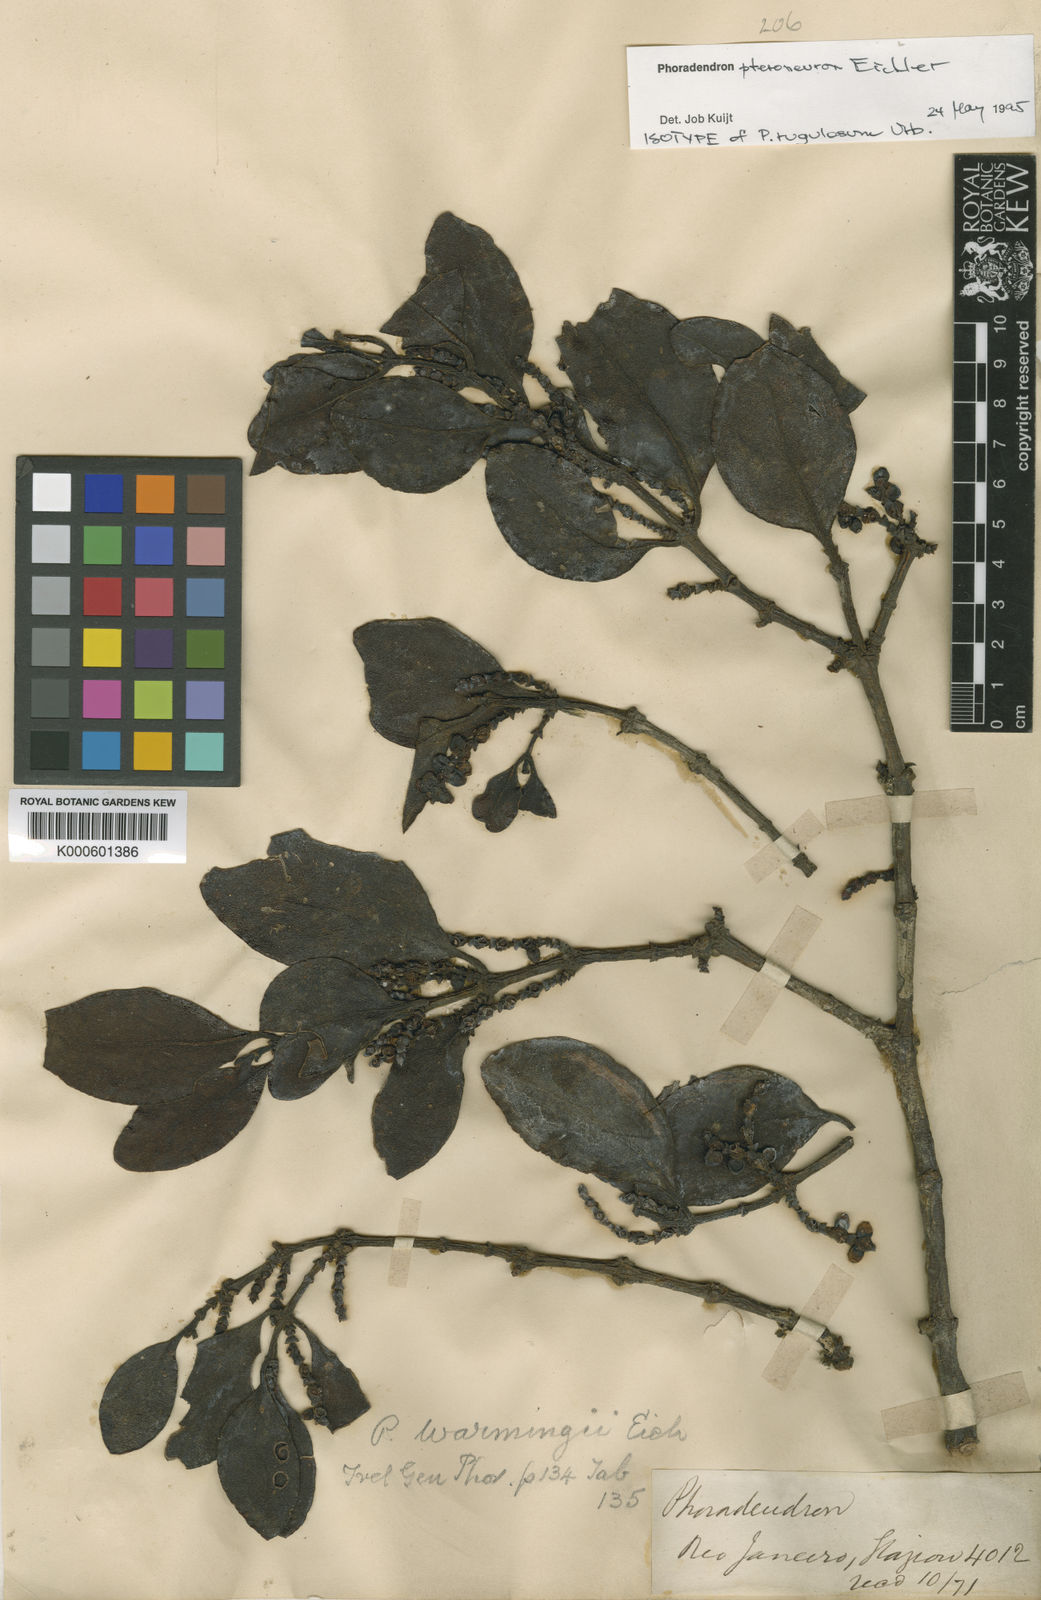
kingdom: Plantae
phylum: Tracheophyta
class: Magnoliopsida
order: Santalales
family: Viscaceae
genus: Phoradendron
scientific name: Phoradendron pteroneuron
